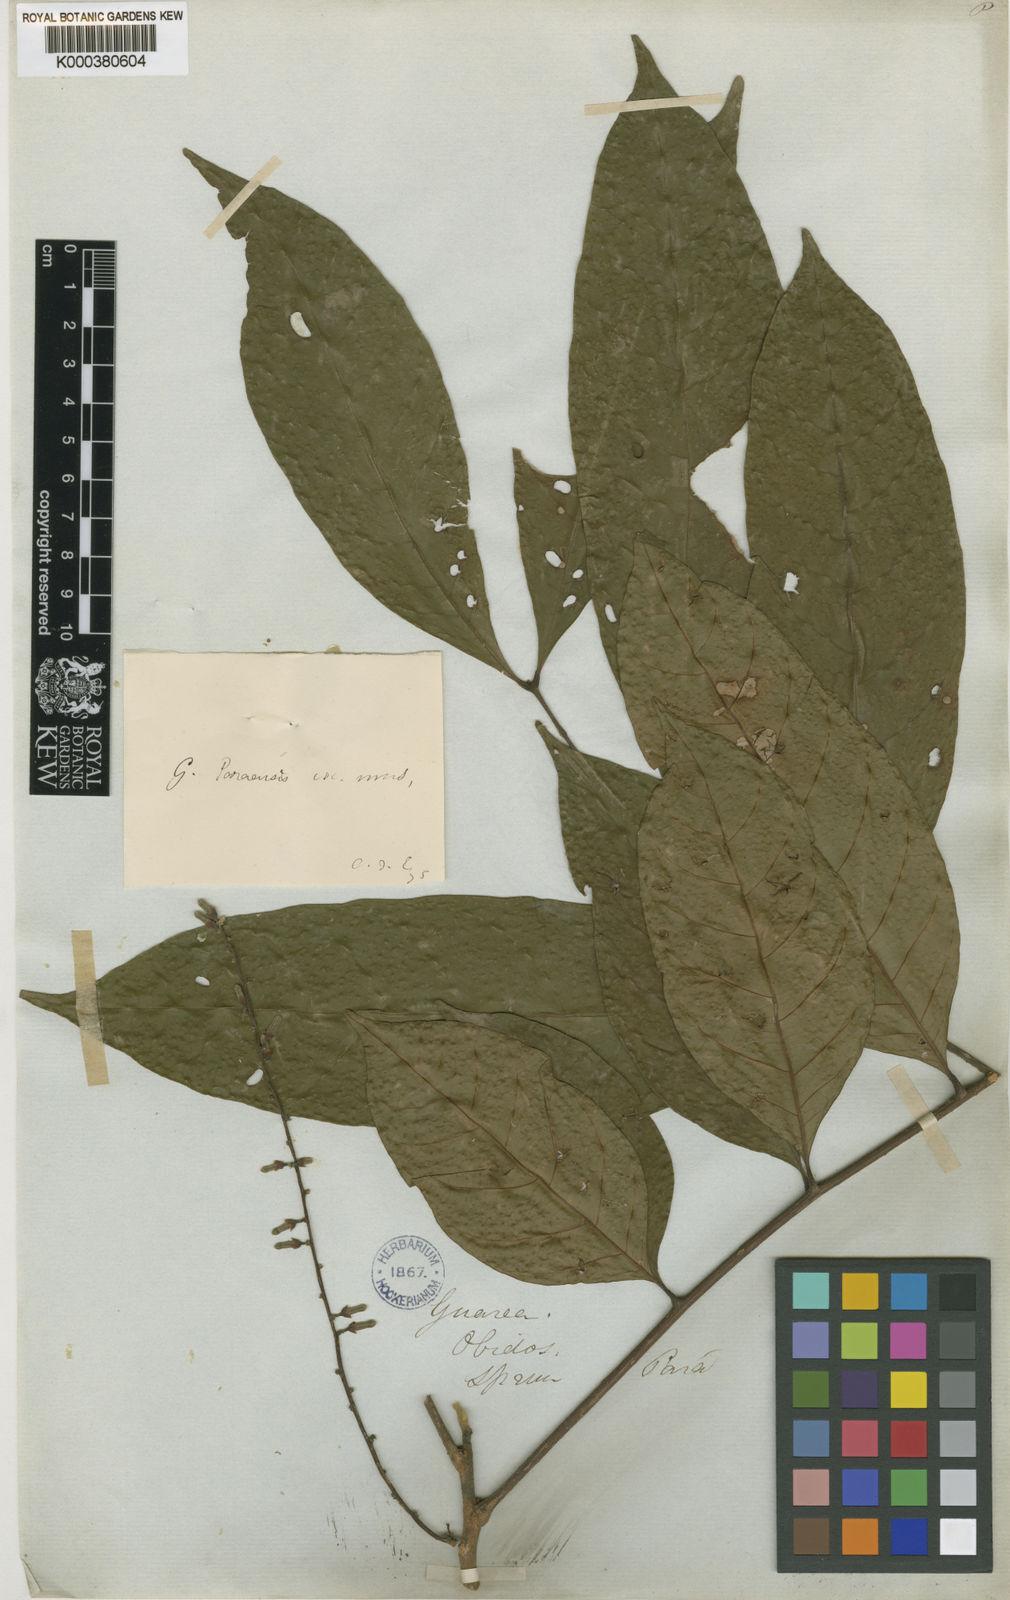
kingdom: Plantae
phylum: Tracheophyta
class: Magnoliopsida
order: Sapindales
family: Meliaceae
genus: Guarea
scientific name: Guarea macrophylla
